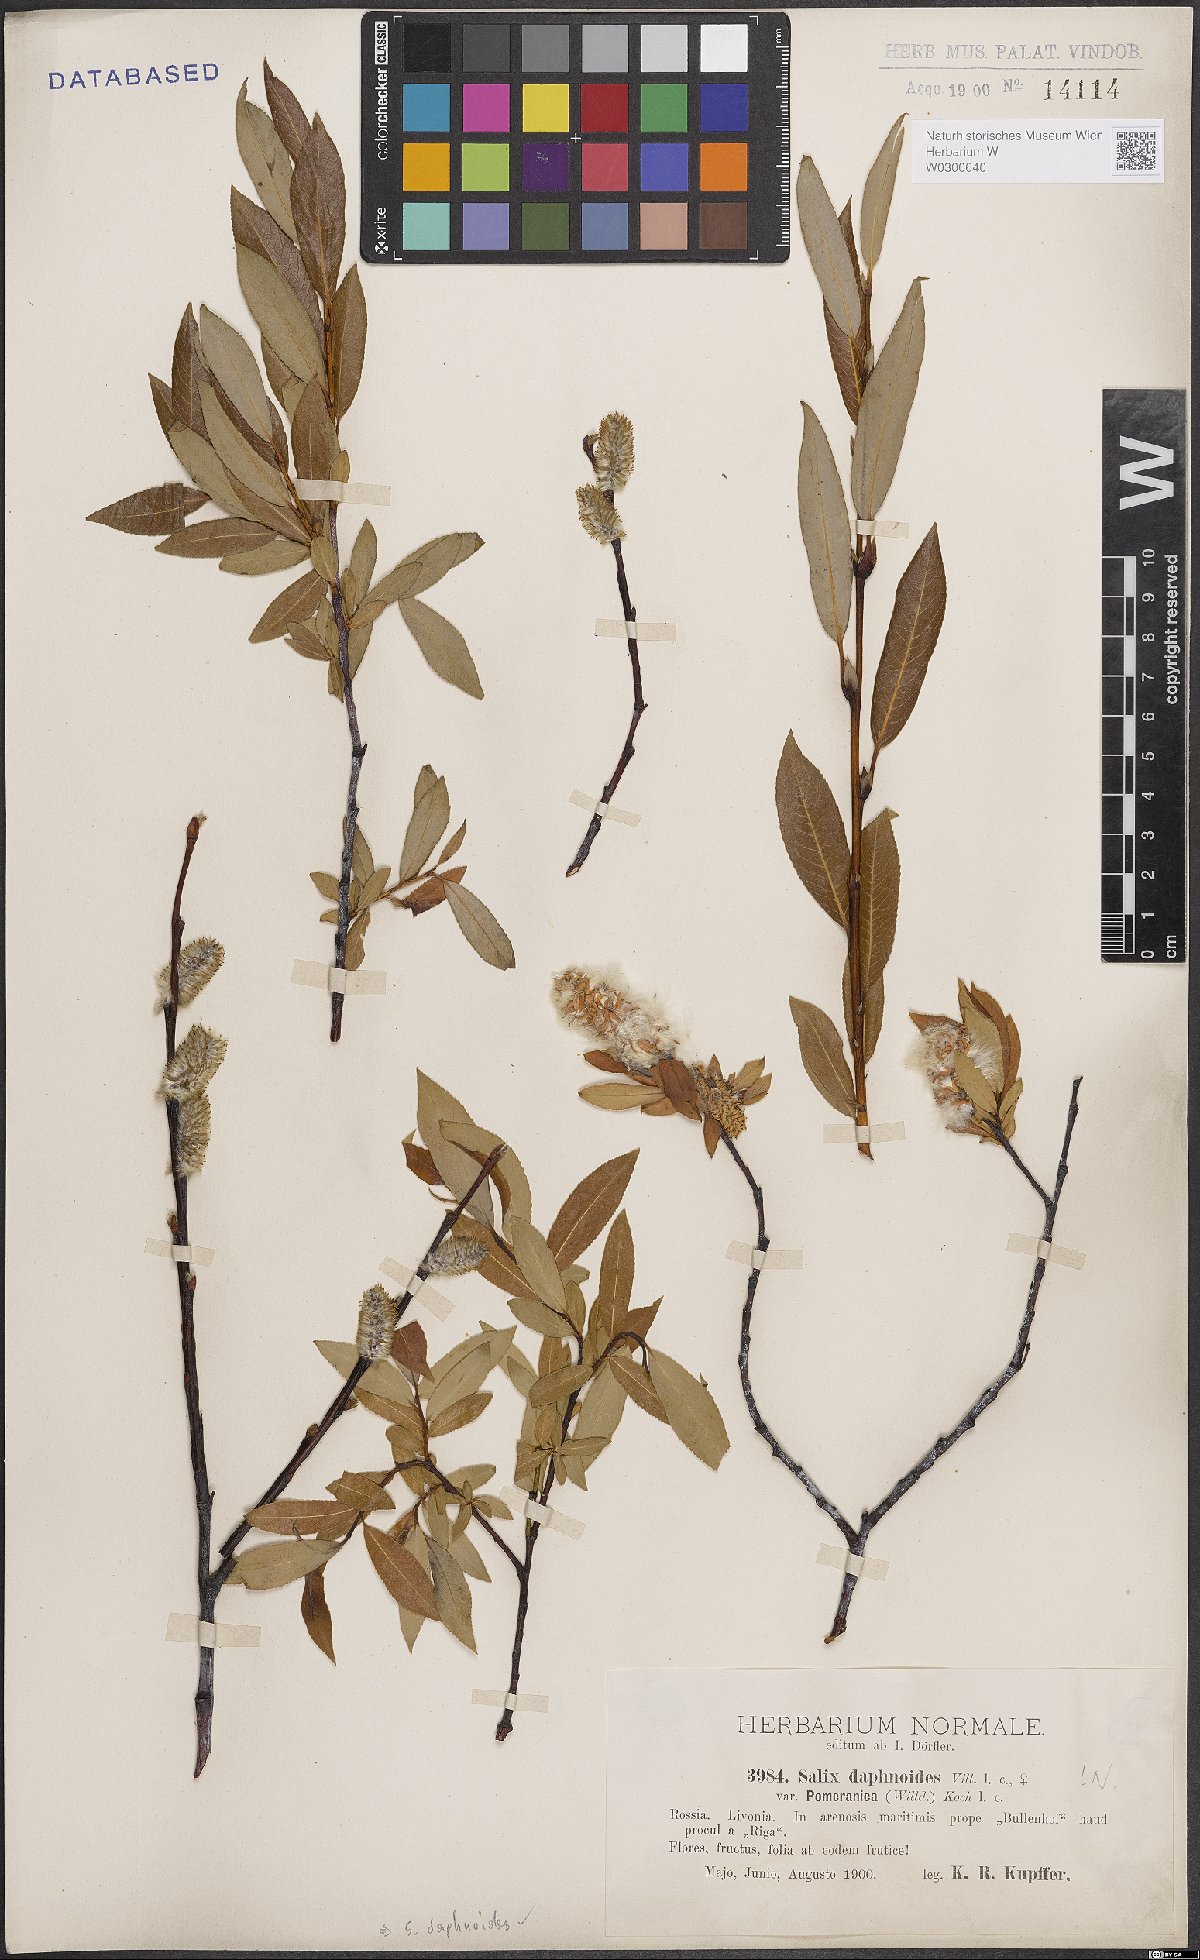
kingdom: Plantae
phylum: Tracheophyta
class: Magnoliopsida
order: Malpighiales
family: Salicaceae
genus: Salix
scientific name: Salix daphnoides
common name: European violet-willow
